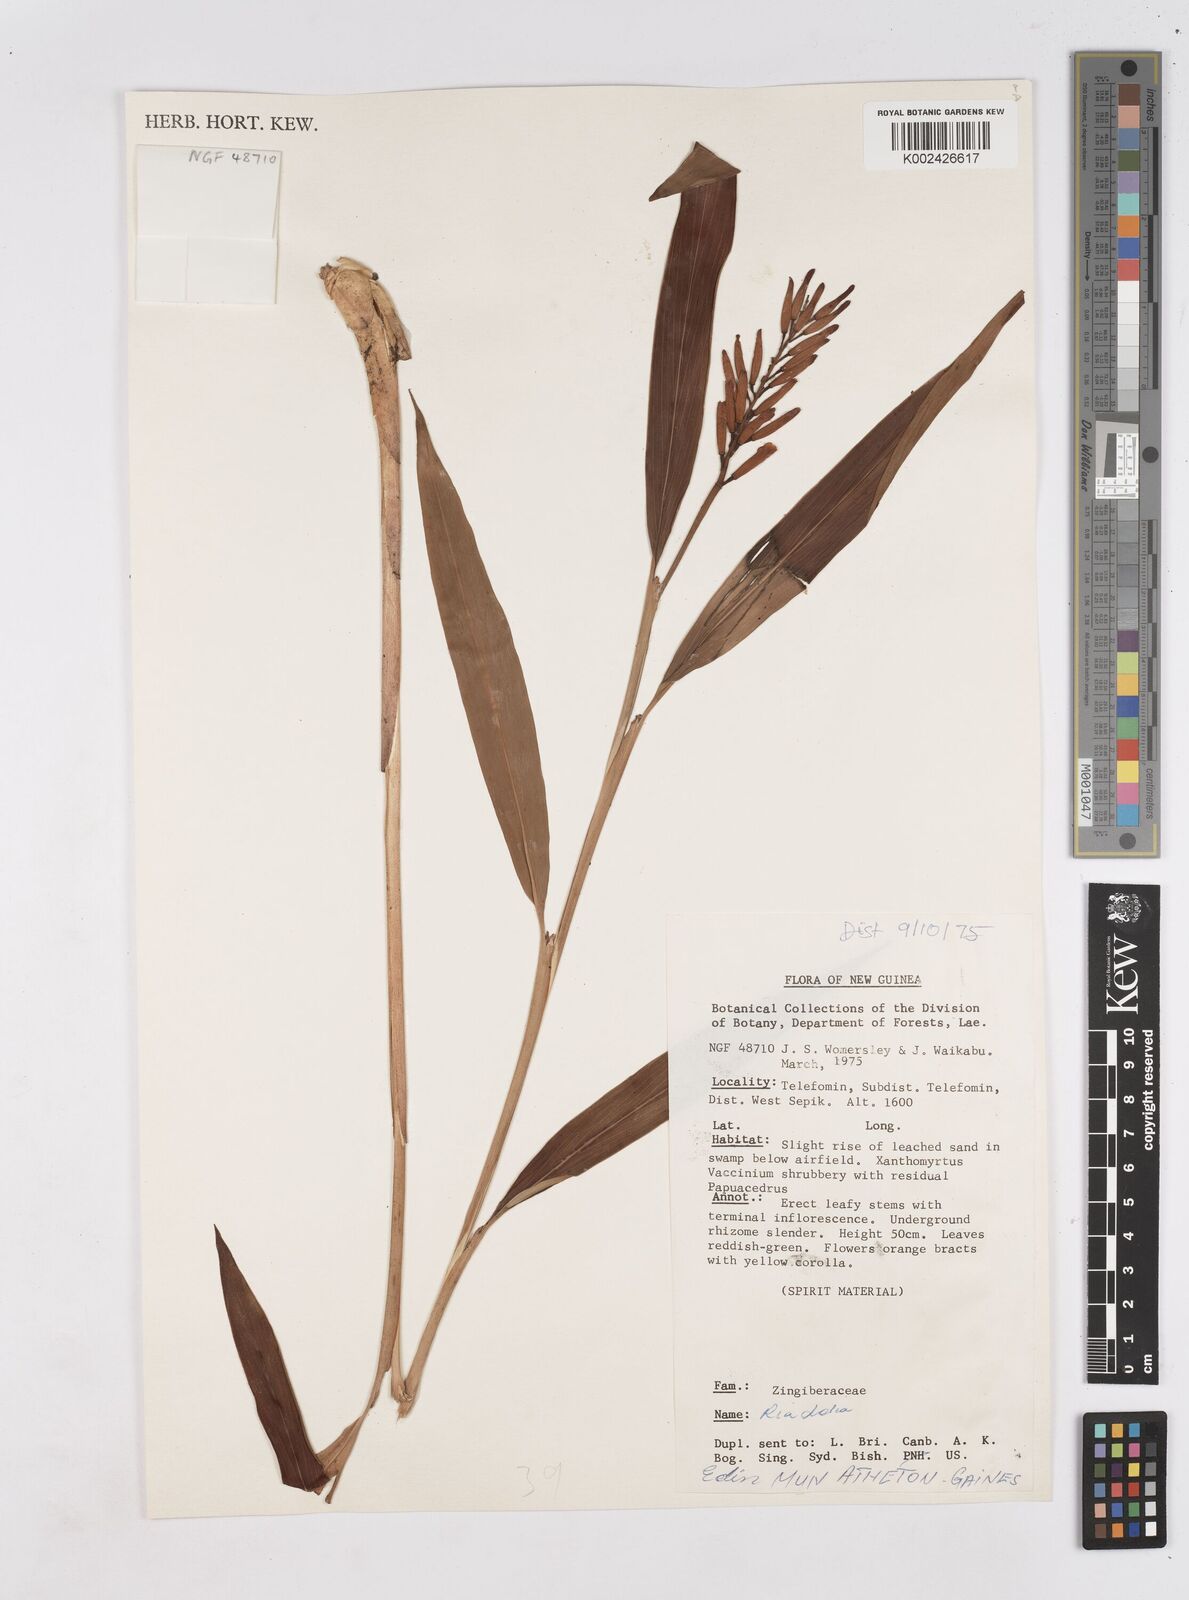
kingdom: Plantae
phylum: Tracheophyta
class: Liliopsida
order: Zingiberales
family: Zingiberaceae
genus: Riedelia
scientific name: Riedelia
